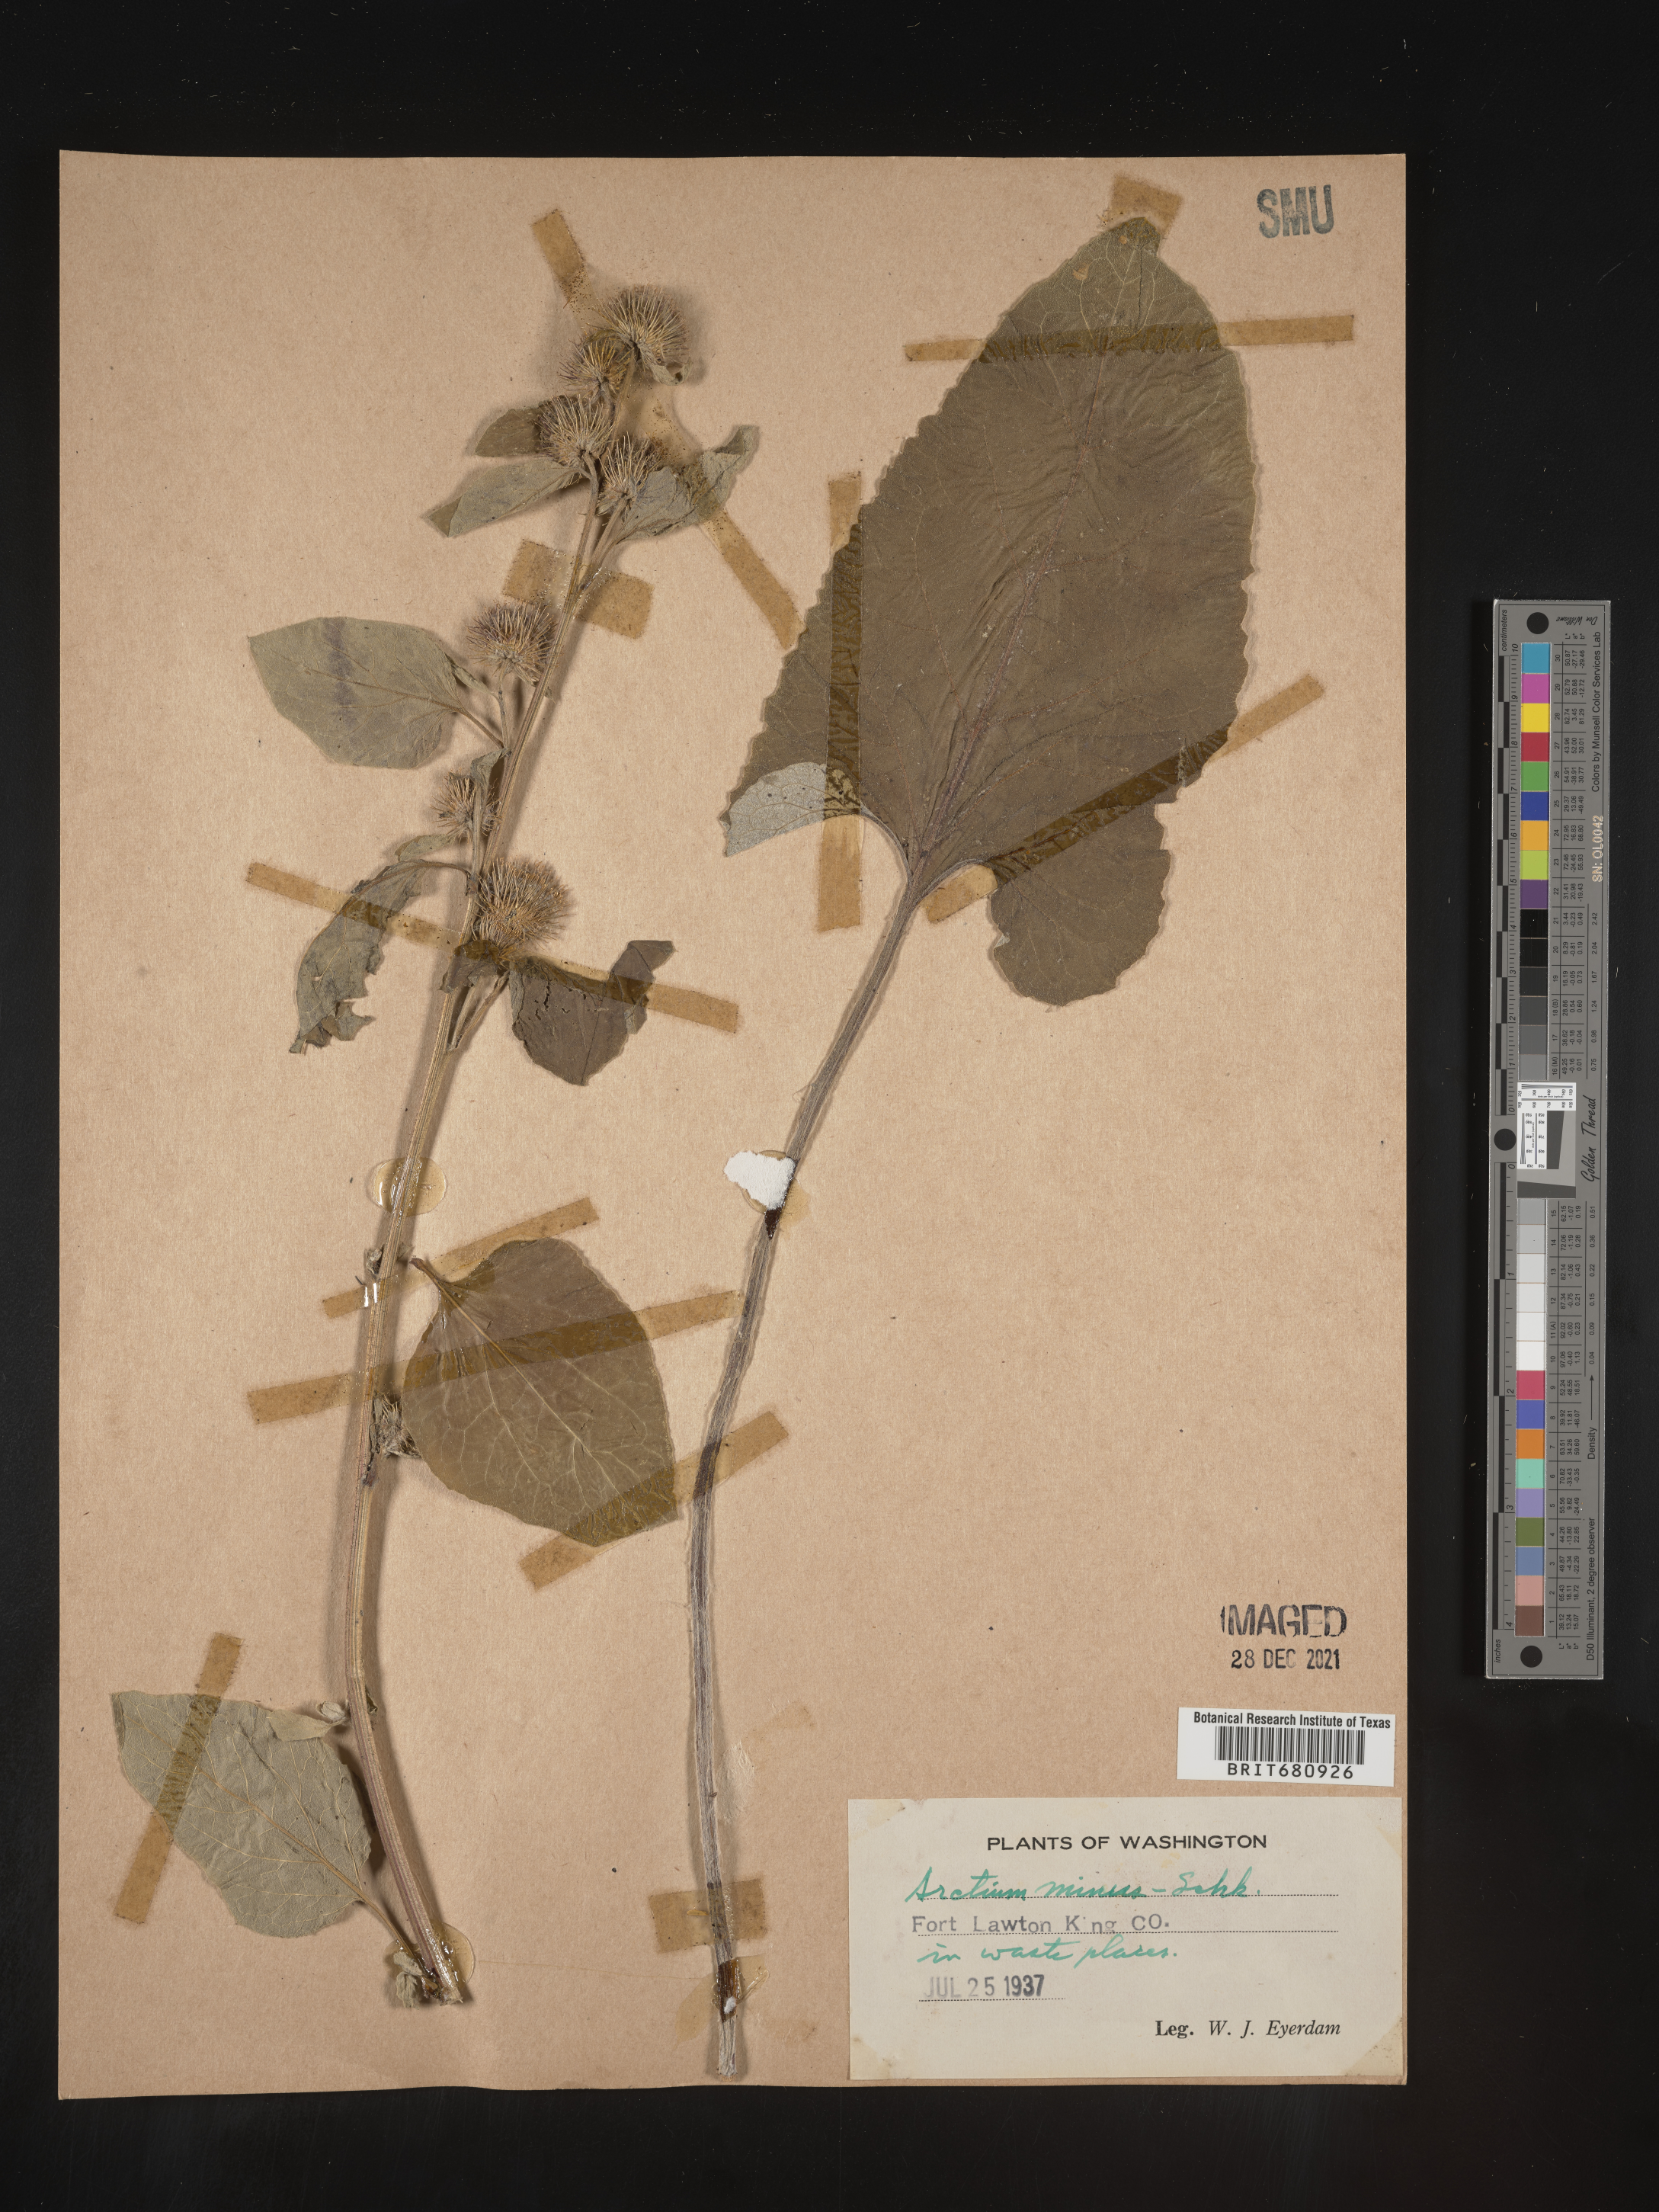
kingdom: Plantae
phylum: Tracheophyta
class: Magnoliopsida
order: Asterales
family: Asteraceae
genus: Arctium
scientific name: Arctium minus
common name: Lesser burdock
